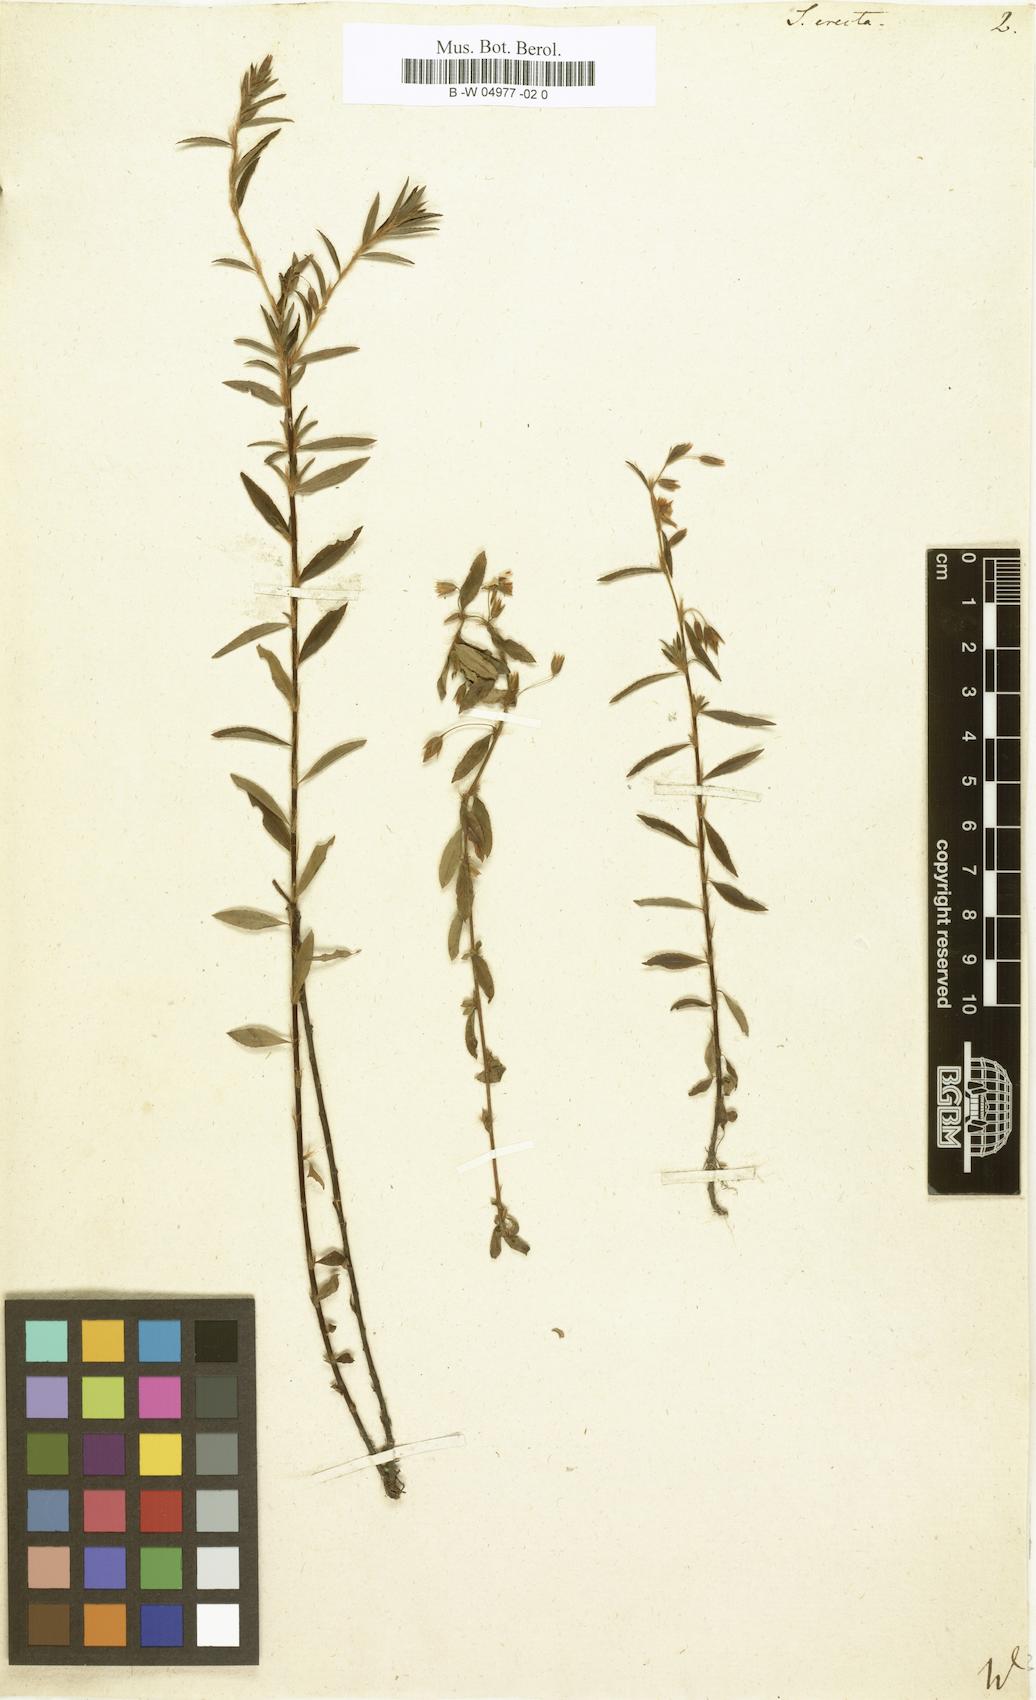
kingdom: Plantae
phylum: Tracheophyta
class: Magnoliopsida
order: Malpighiales
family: Ochnaceae
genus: Sauvagesia
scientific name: Sauvagesia erecta
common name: Creole tea
